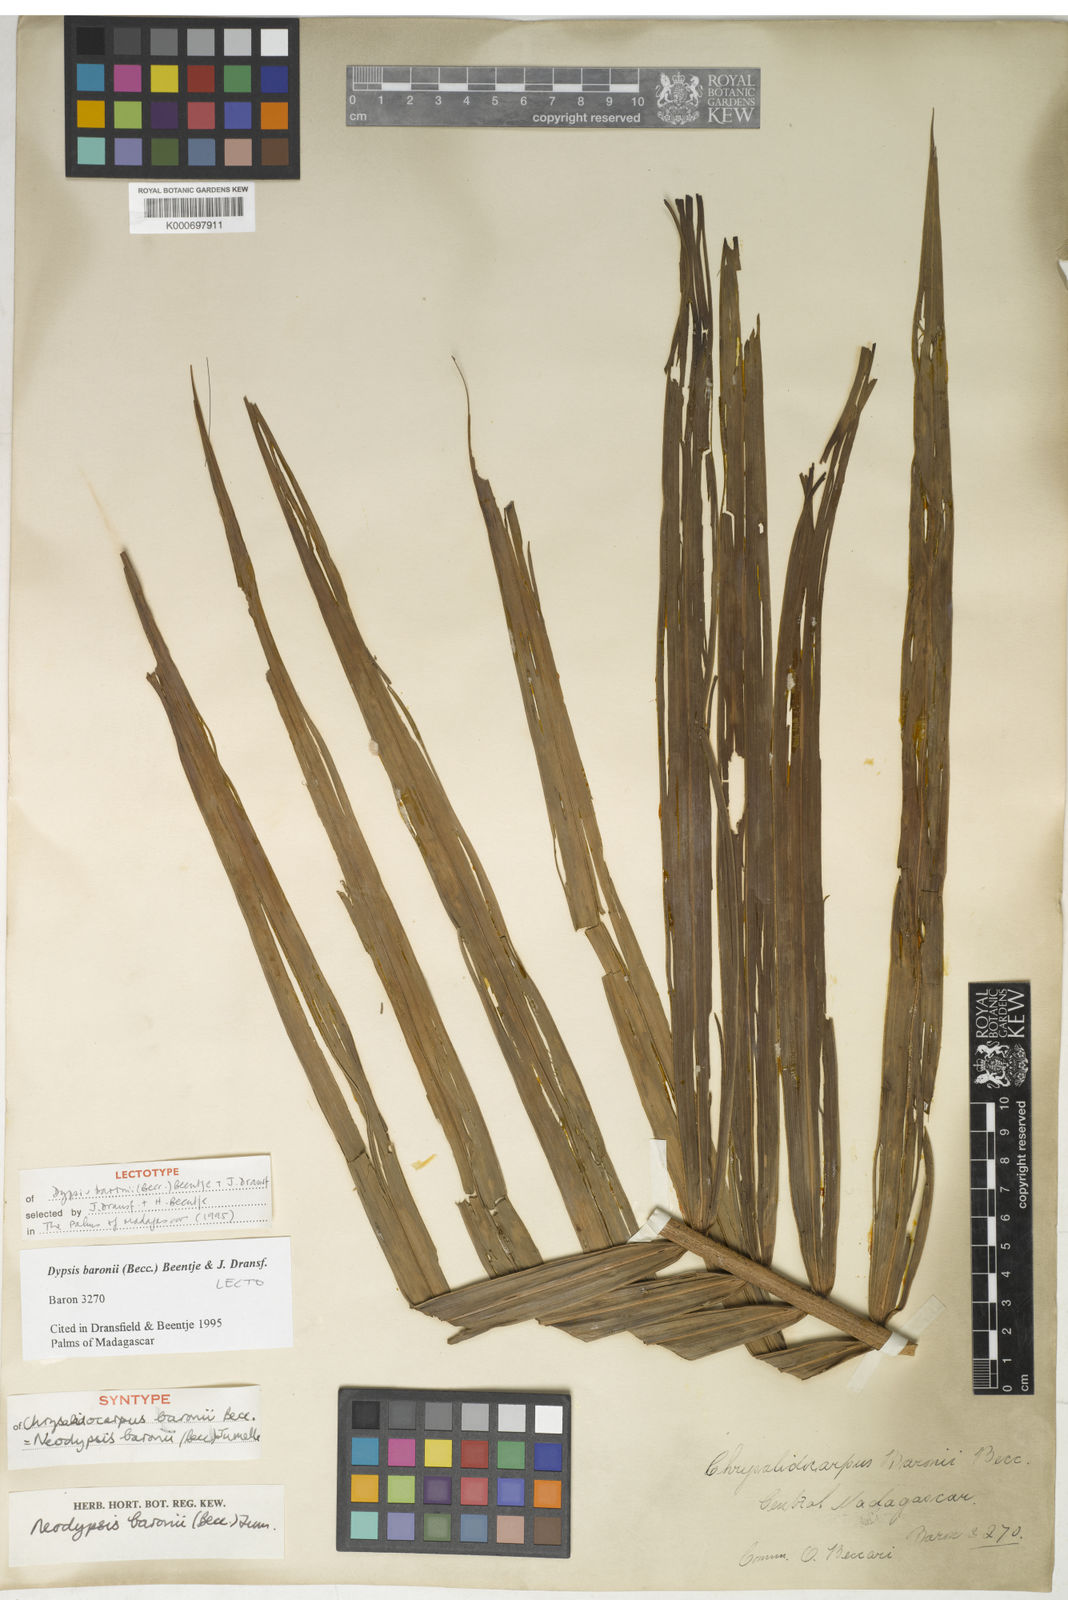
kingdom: Plantae
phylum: Tracheophyta
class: Liliopsida
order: Arecales
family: Arecaceae
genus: Dypsis
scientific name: Dypsis baronii
